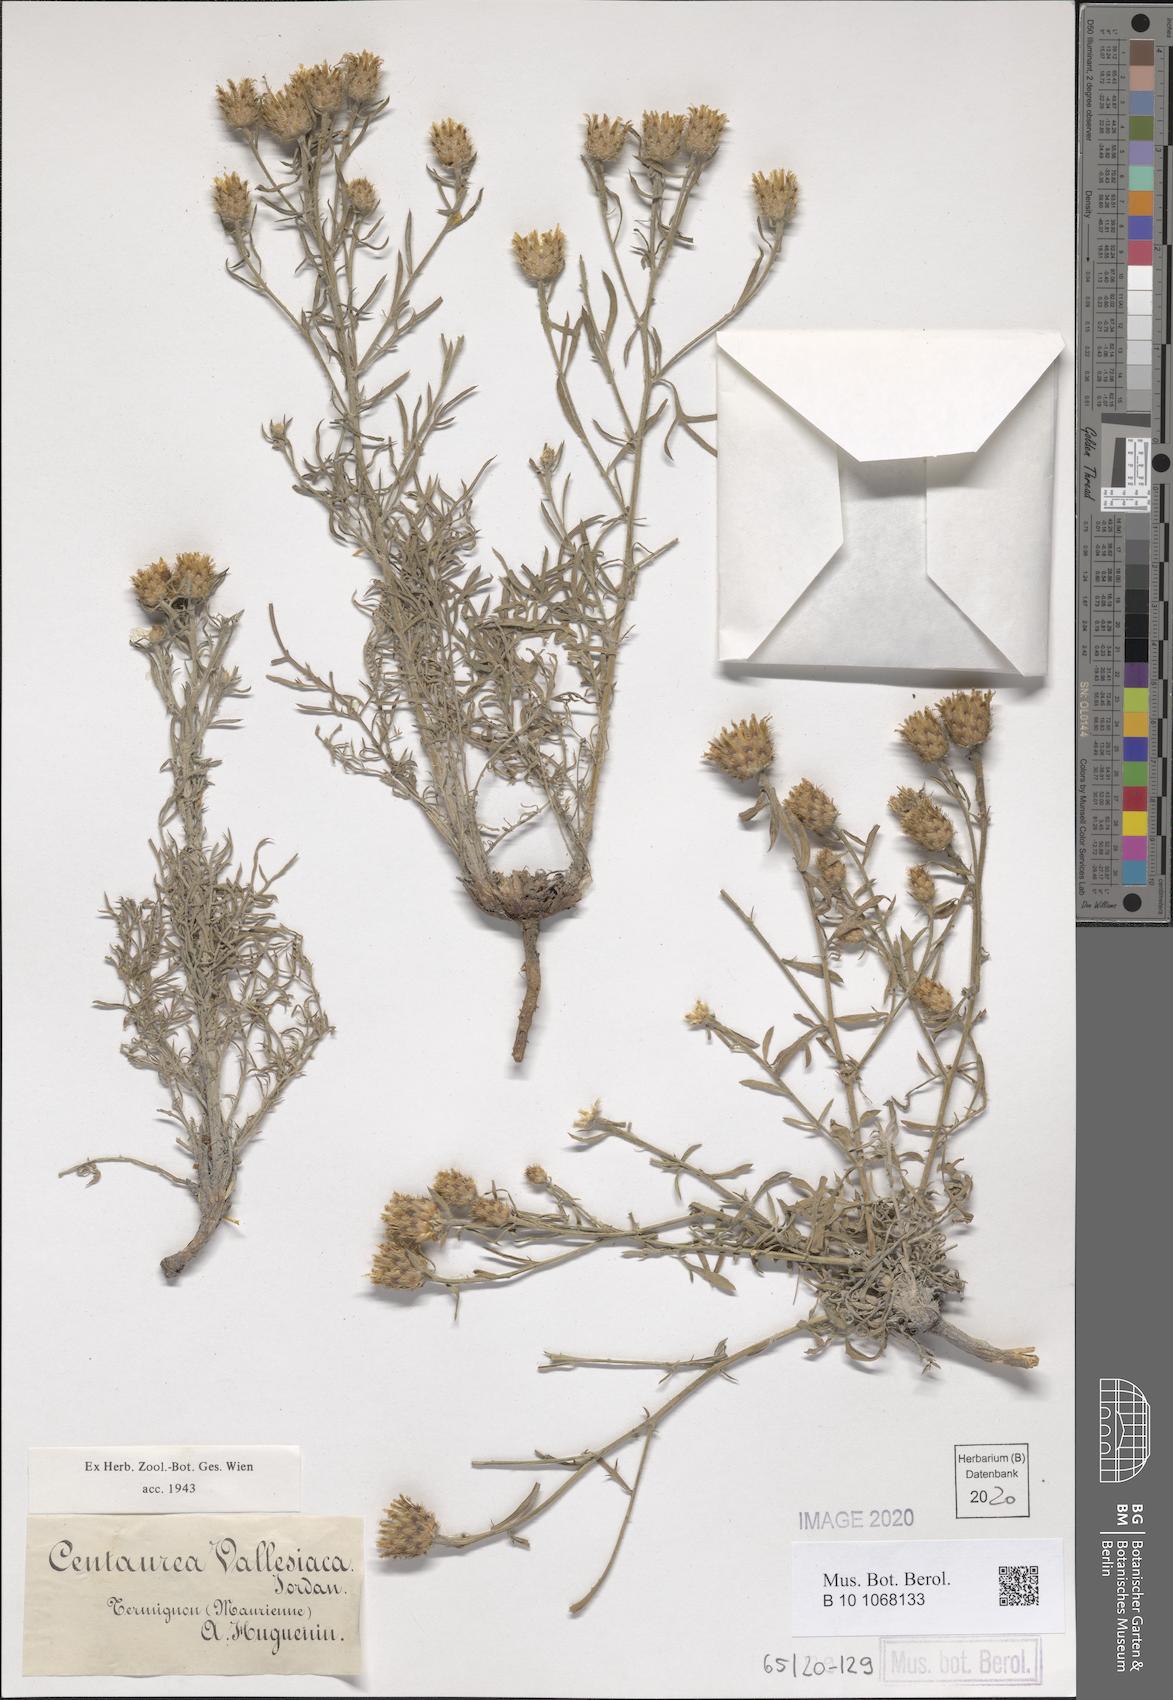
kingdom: Plantae
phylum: Tracheophyta
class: Magnoliopsida
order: Asterales
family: Asteraceae
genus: Centaurea
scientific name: Centaurea valesiaca
